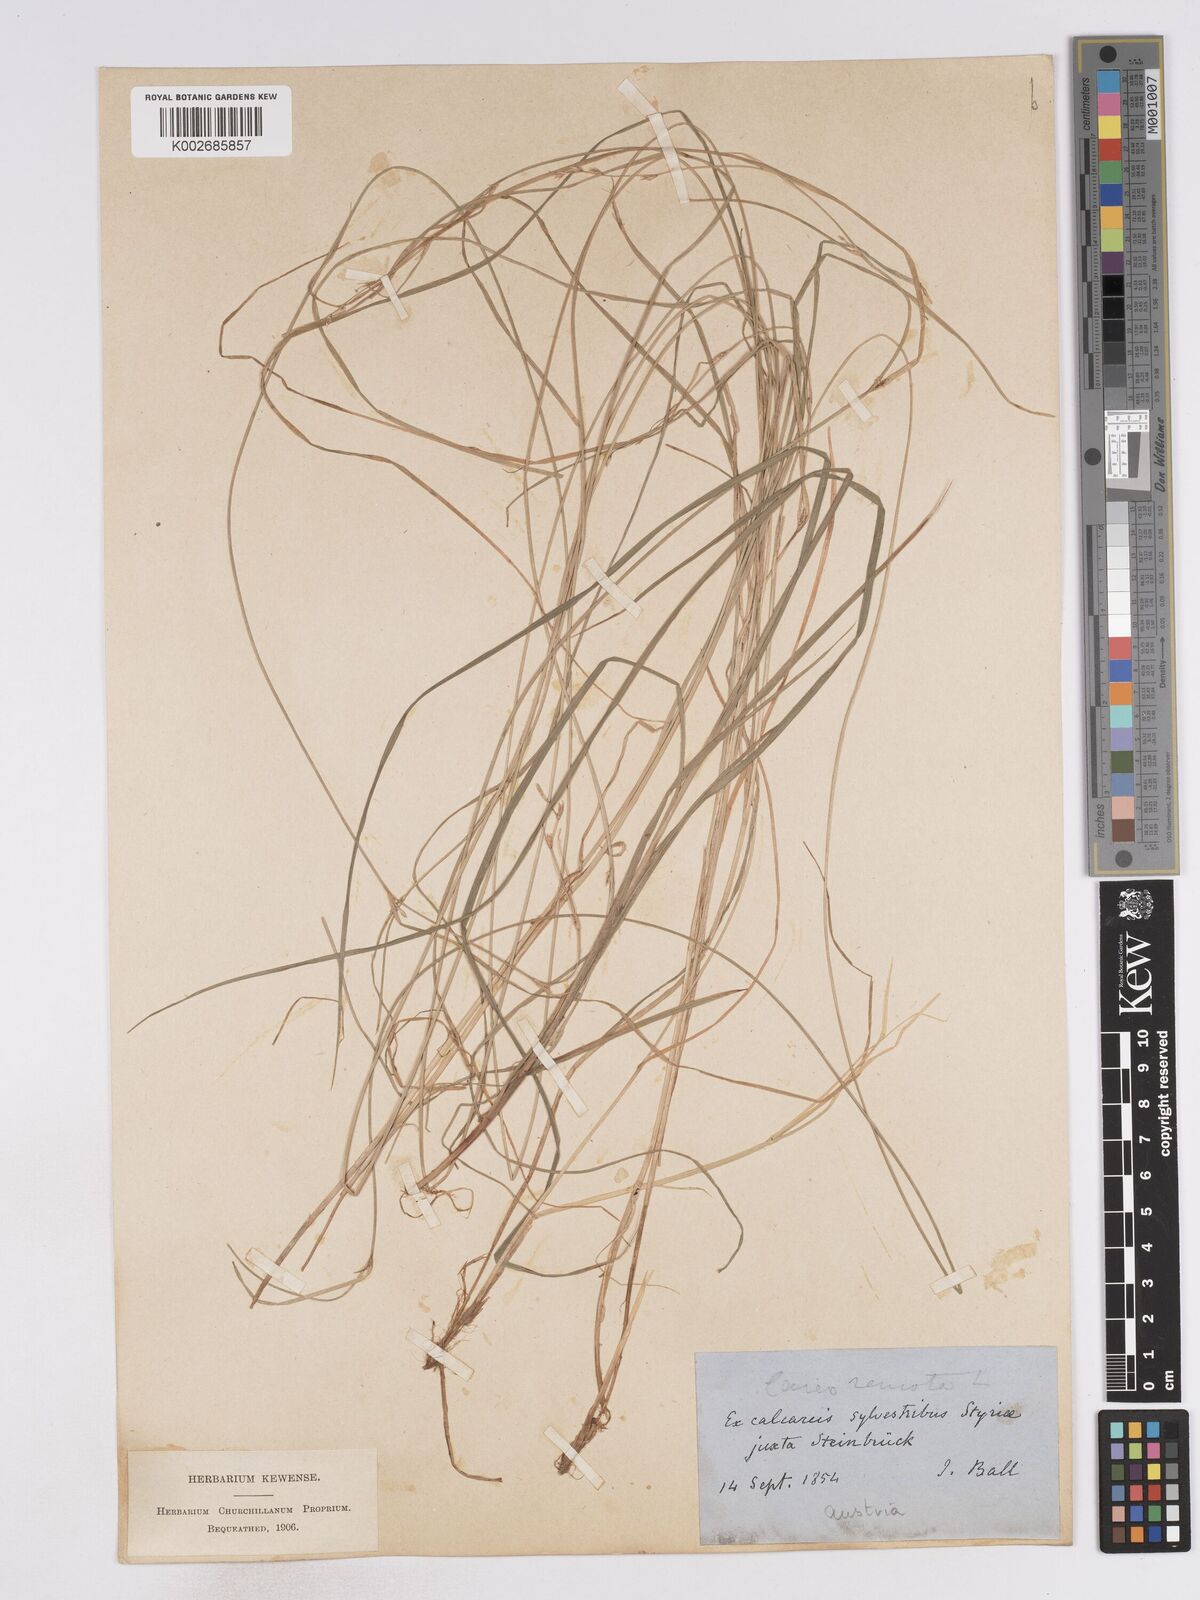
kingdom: Plantae
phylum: Tracheophyta
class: Liliopsida
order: Poales
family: Cyperaceae
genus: Carex
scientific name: Carex remota
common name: Remote sedge
